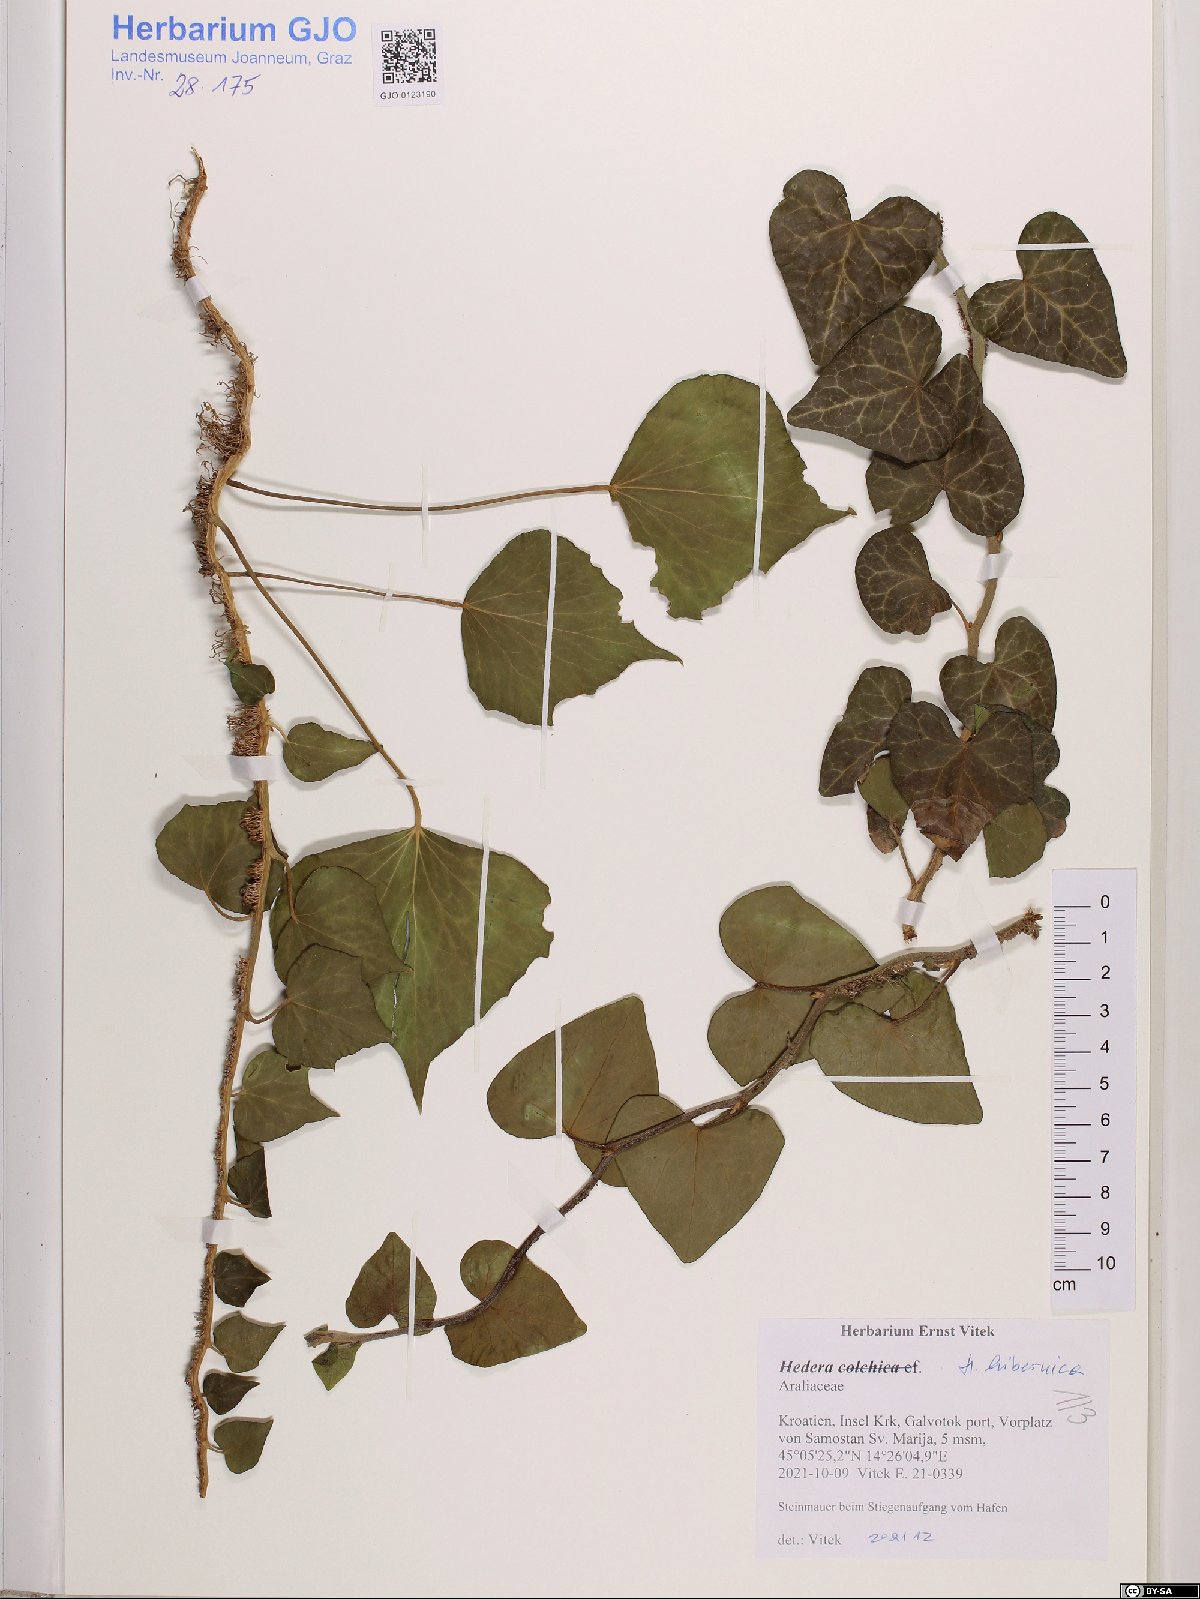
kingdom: Plantae
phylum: Tracheophyta
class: Magnoliopsida
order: Apiales
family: Araliaceae
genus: Hedera
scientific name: Hedera hibernica
